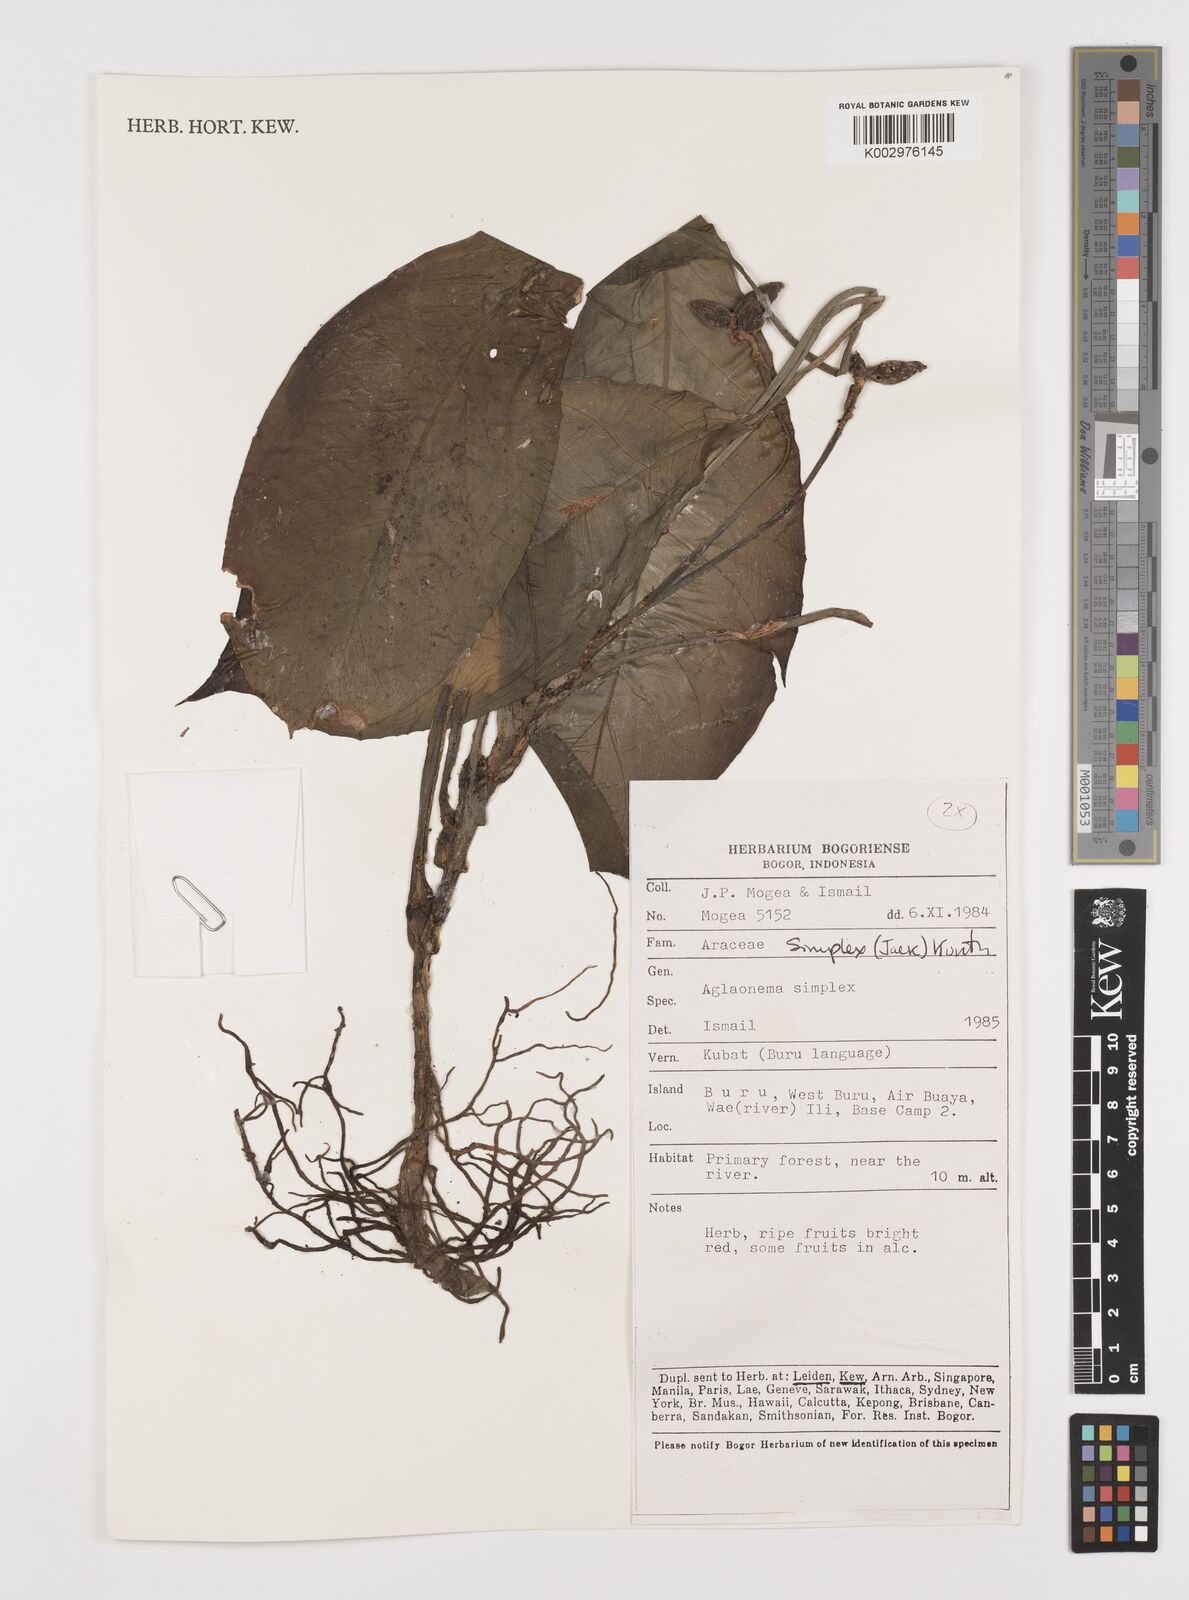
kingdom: Plantae
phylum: Tracheophyta
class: Liliopsida
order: Alismatales
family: Araceae
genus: Aglaonema
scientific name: Aglaonema simplex
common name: Malayan-sword
